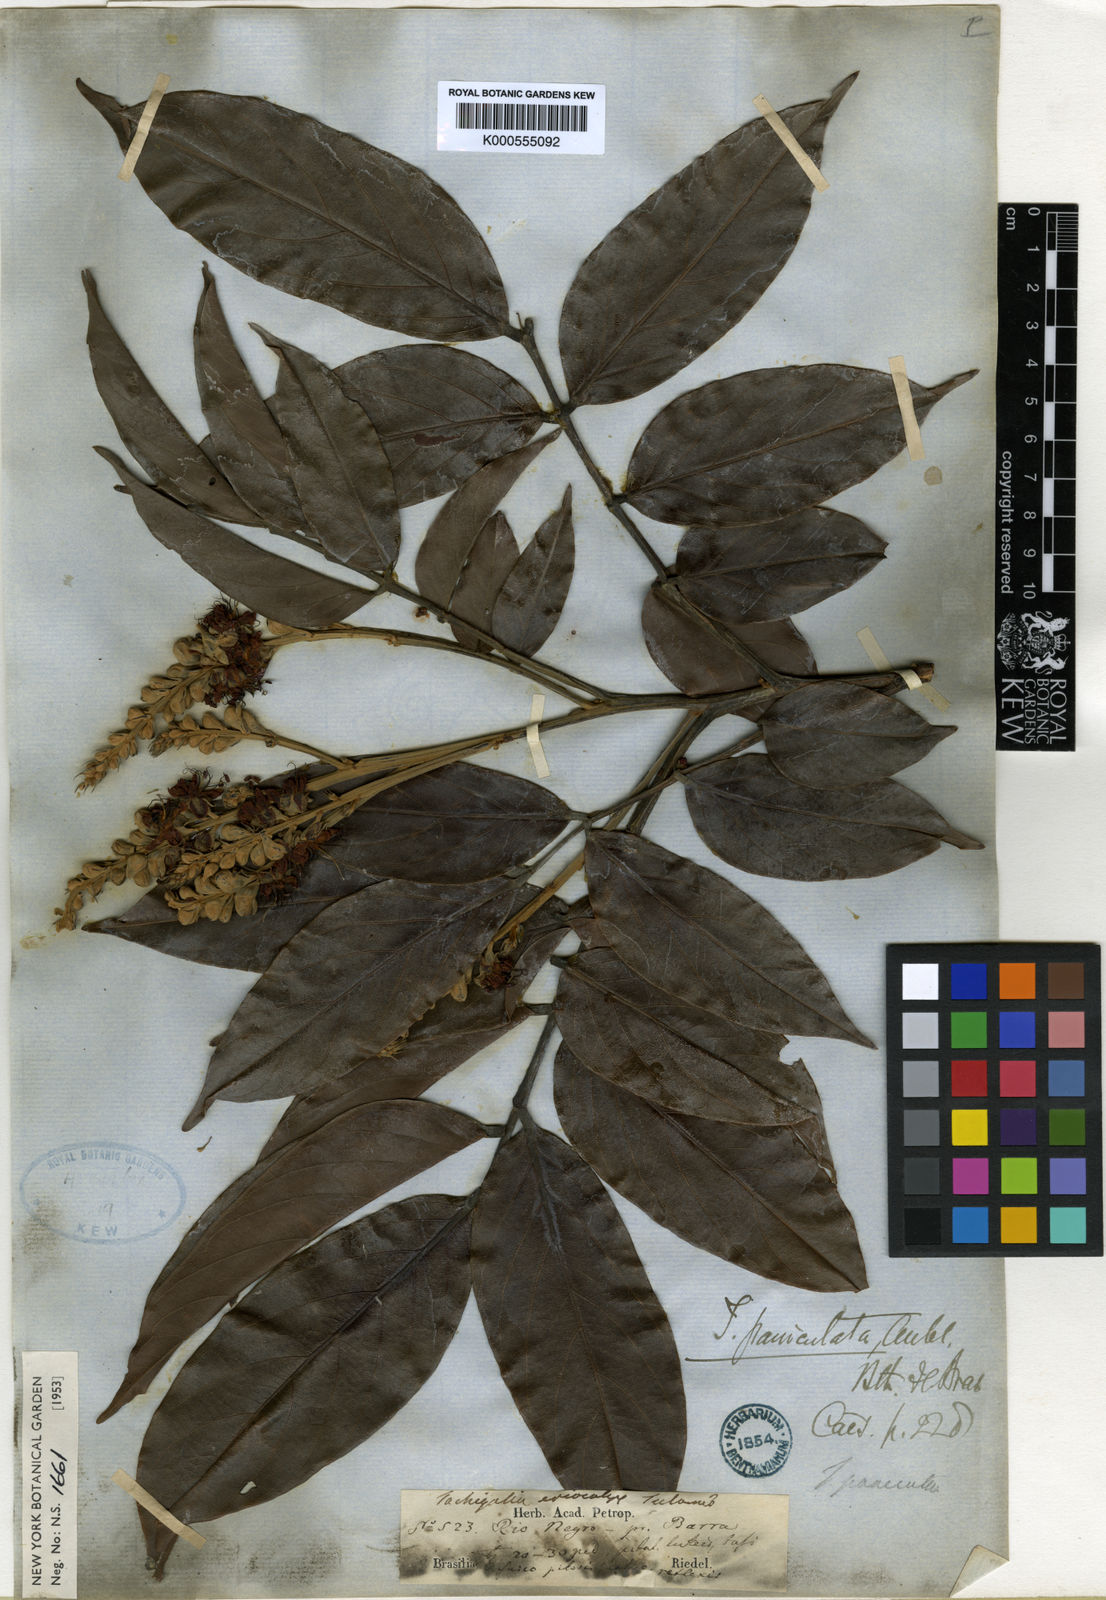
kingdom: Plantae
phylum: Tracheophyta
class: Magnoliopsida
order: Fabales
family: Fabaceae
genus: Tachigali
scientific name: Tachigali paniculata
